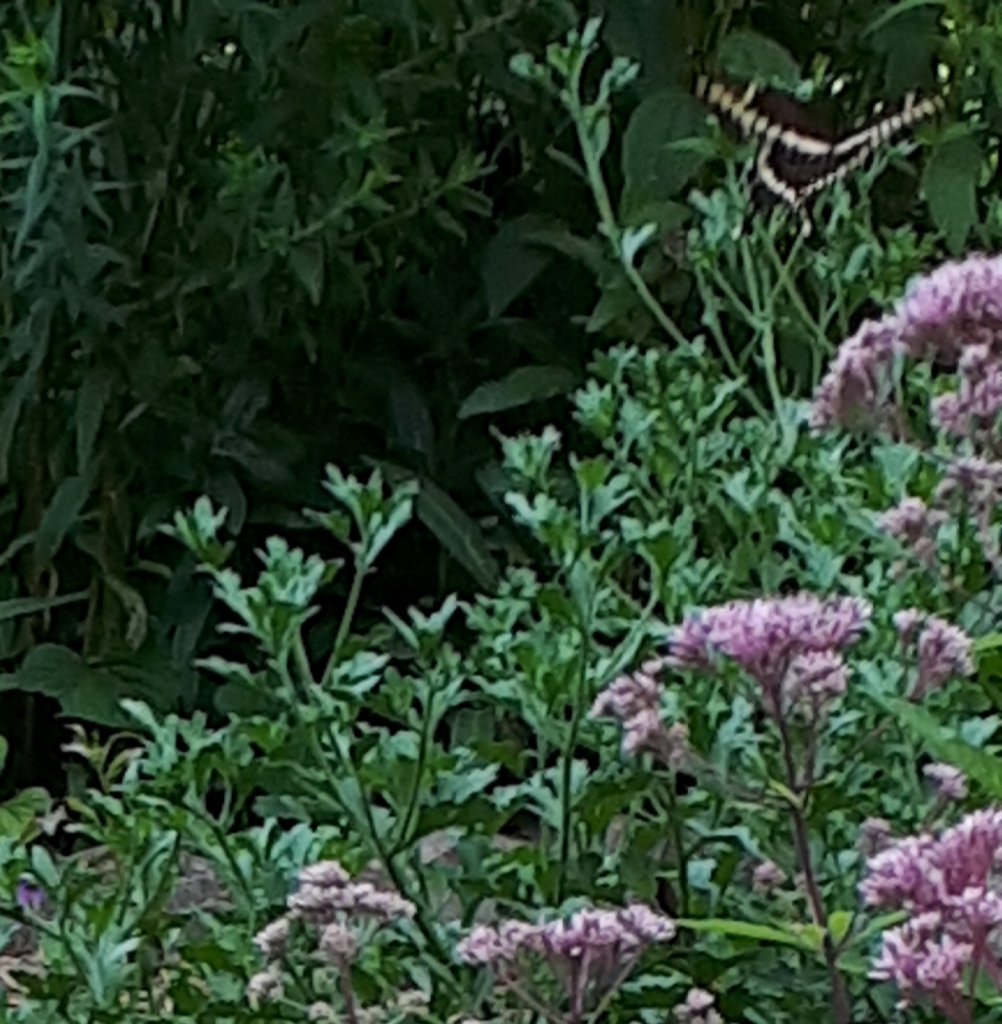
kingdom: Animalia
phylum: Arthropoda
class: Insecta
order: Lepidoptera
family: Papilionidae
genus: Papilio
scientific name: Papilio cresphontes
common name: Eastern Giant Swallowtail
